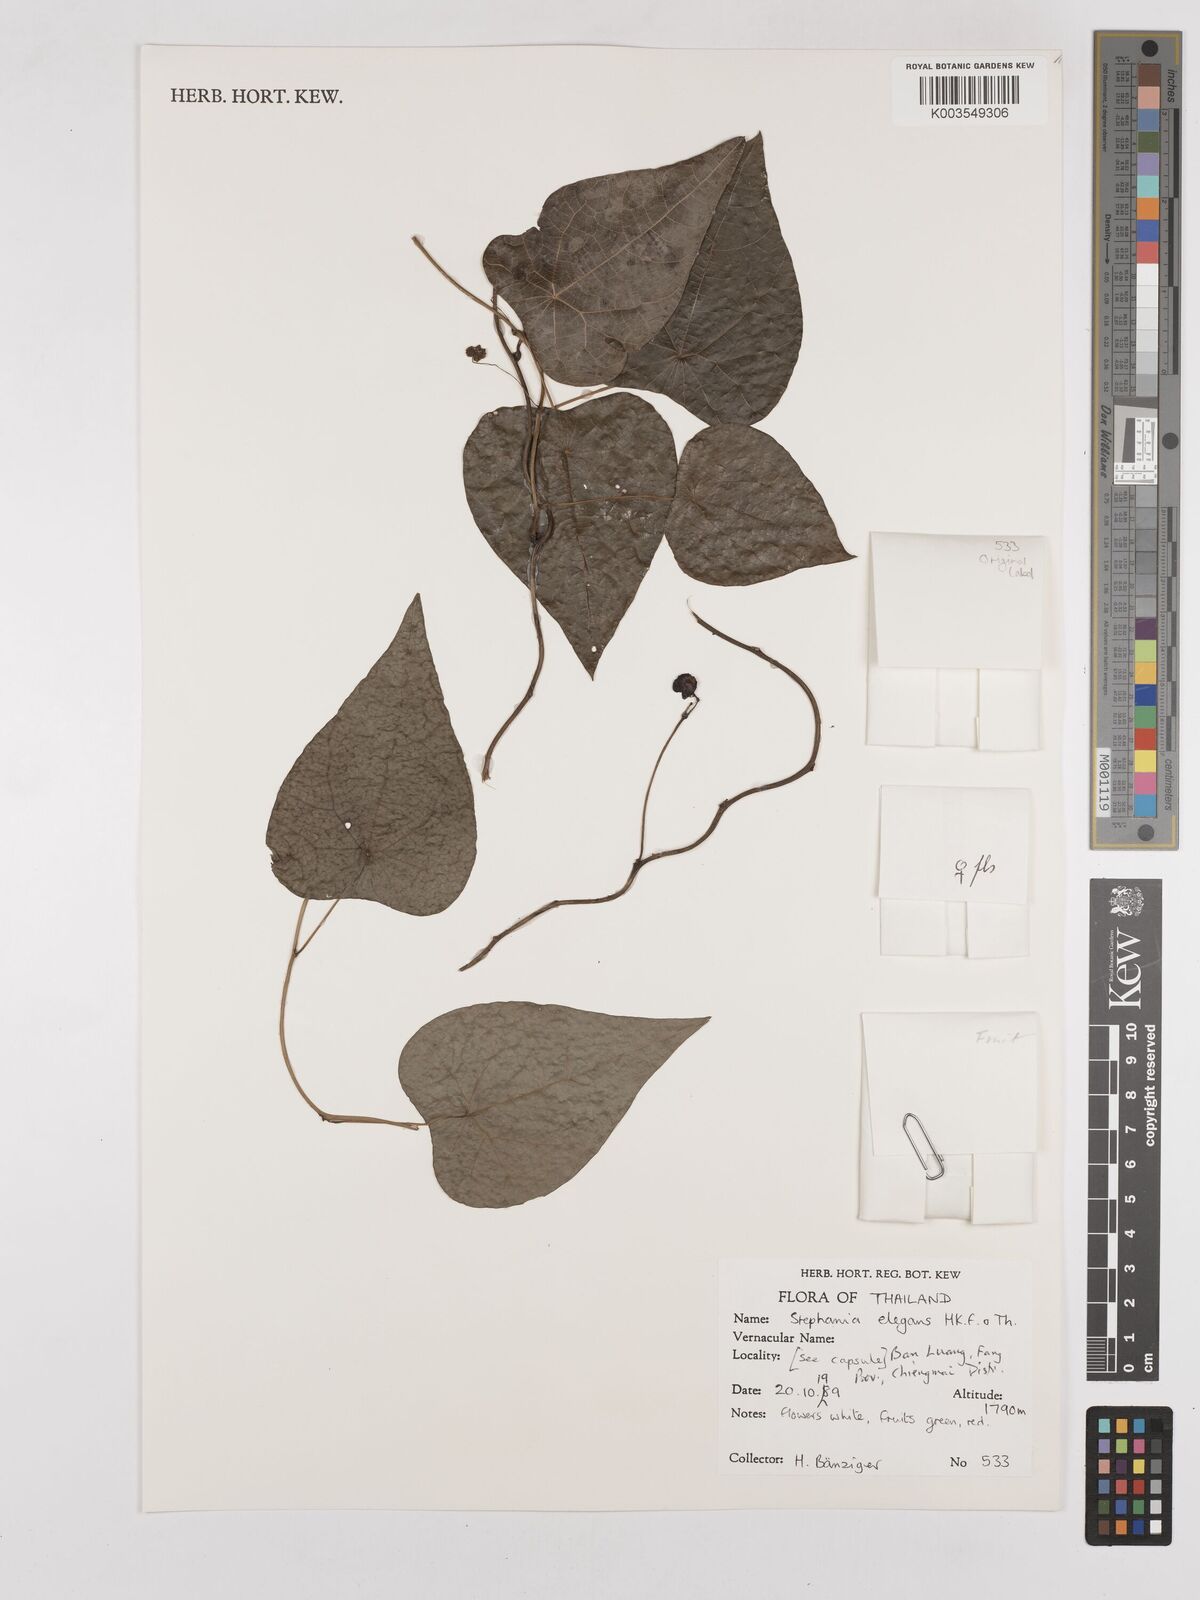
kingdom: Plantae
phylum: Tracheophyta
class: Magnoliopsida
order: Ranunculales
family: Menispermaceae
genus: Stephania
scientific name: Stephania elegans
